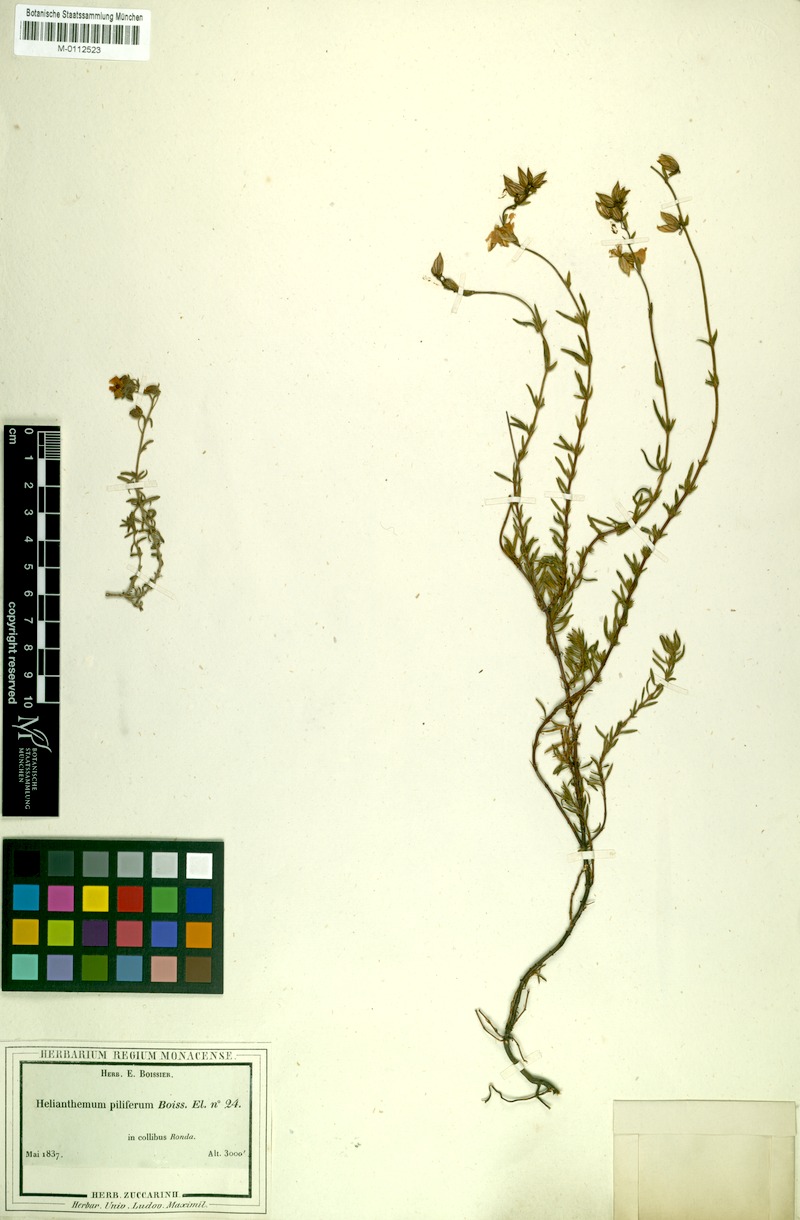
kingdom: Plantae
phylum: Tracheophyta
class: Magnoliopsida
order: Malvales
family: Cistaceae
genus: Helianthemum
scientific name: Helianthemum neopiliferum
